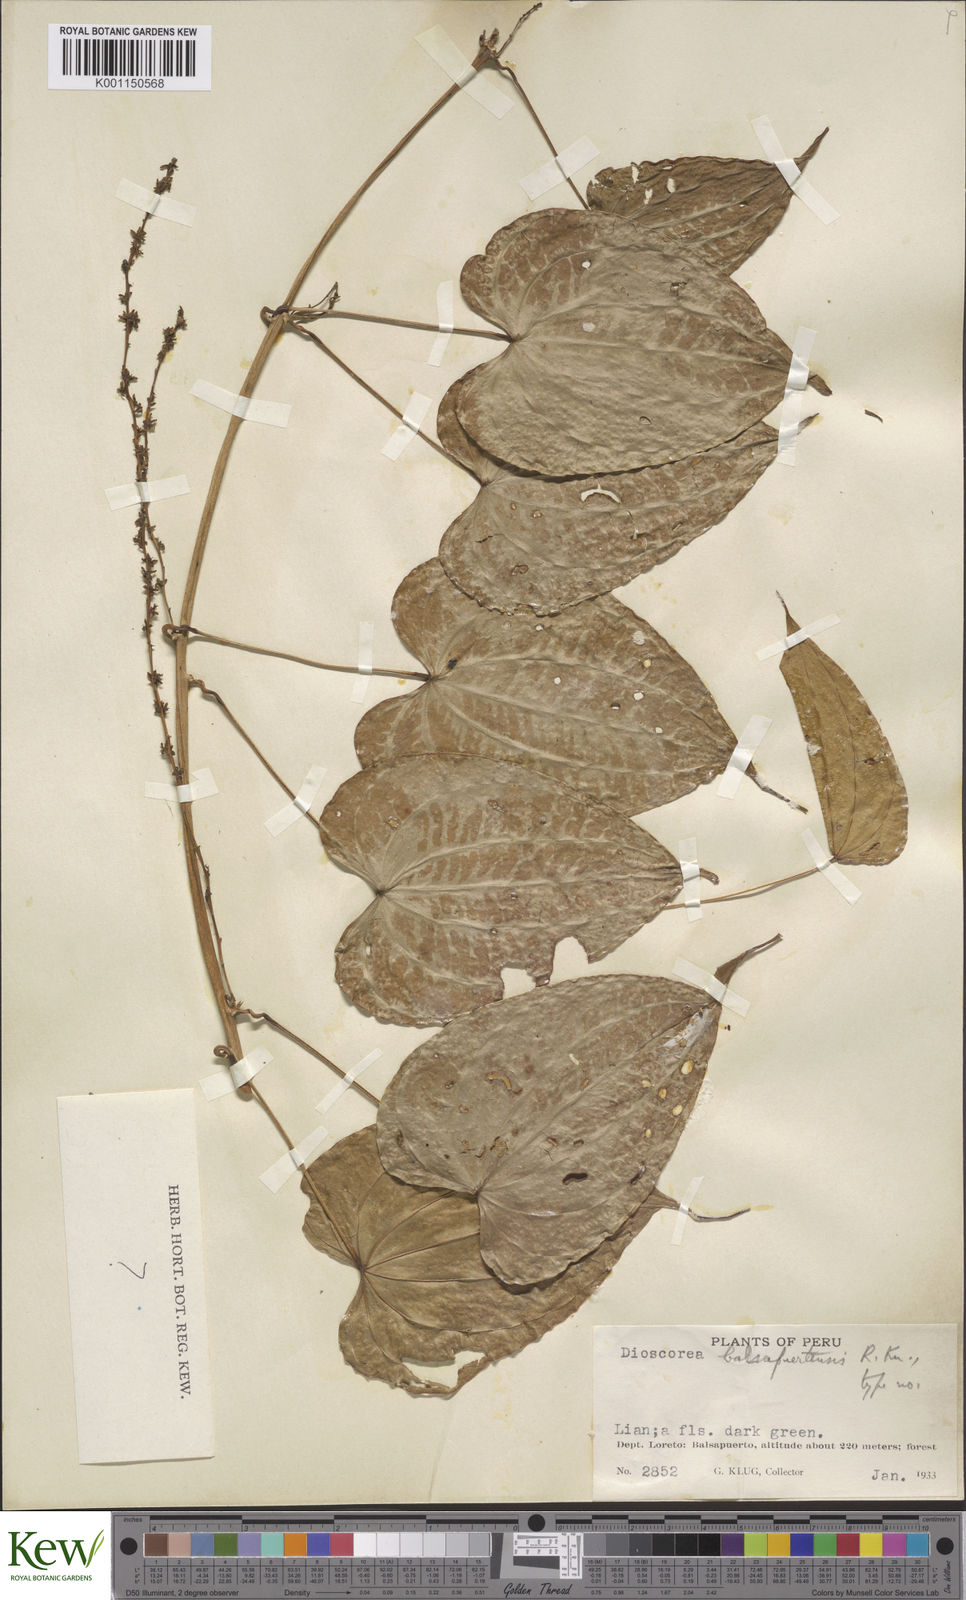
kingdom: Plantae
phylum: Tracheophyta
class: Liliopsida
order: Dioscoreales
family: Dioscoreaceae
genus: Dioscorea
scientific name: Dioscorea chondrocarpa
